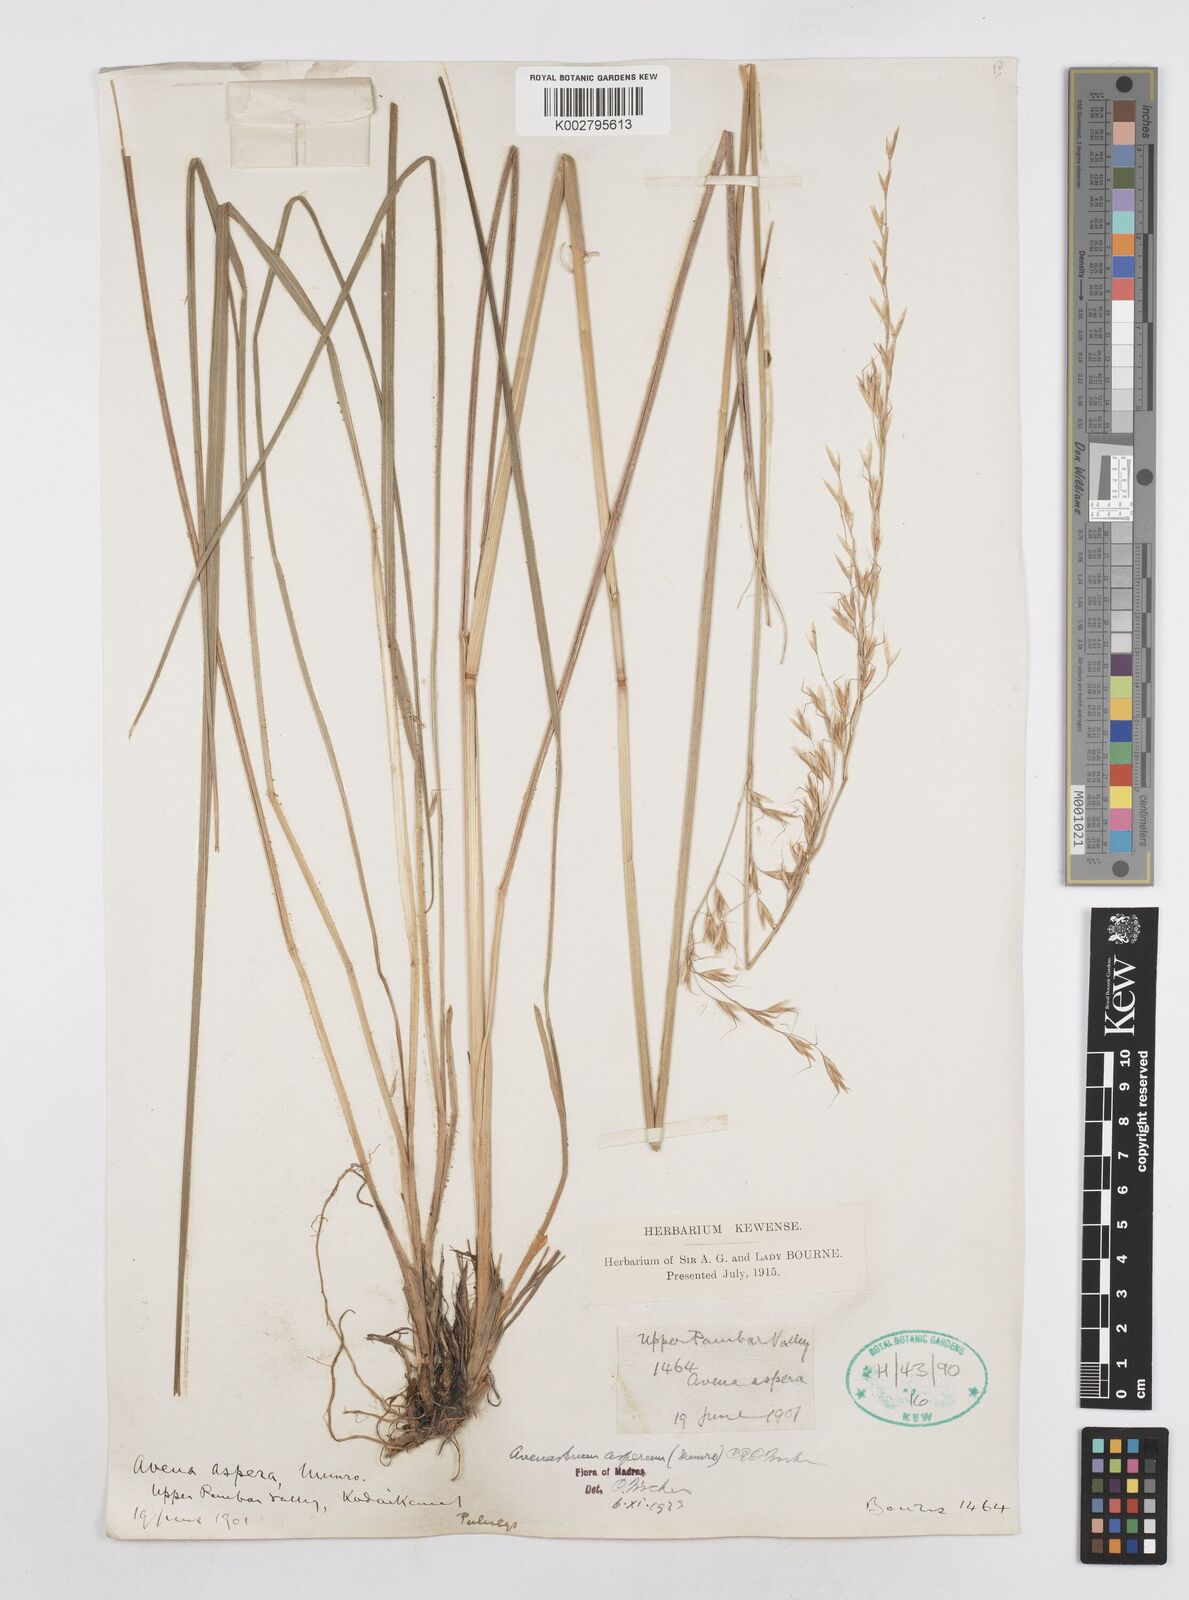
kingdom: Plantae
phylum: Tracheophyta
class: Liliopsida
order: Poales
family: Poaceae
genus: Helictotrichon
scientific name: Helictotrichon
